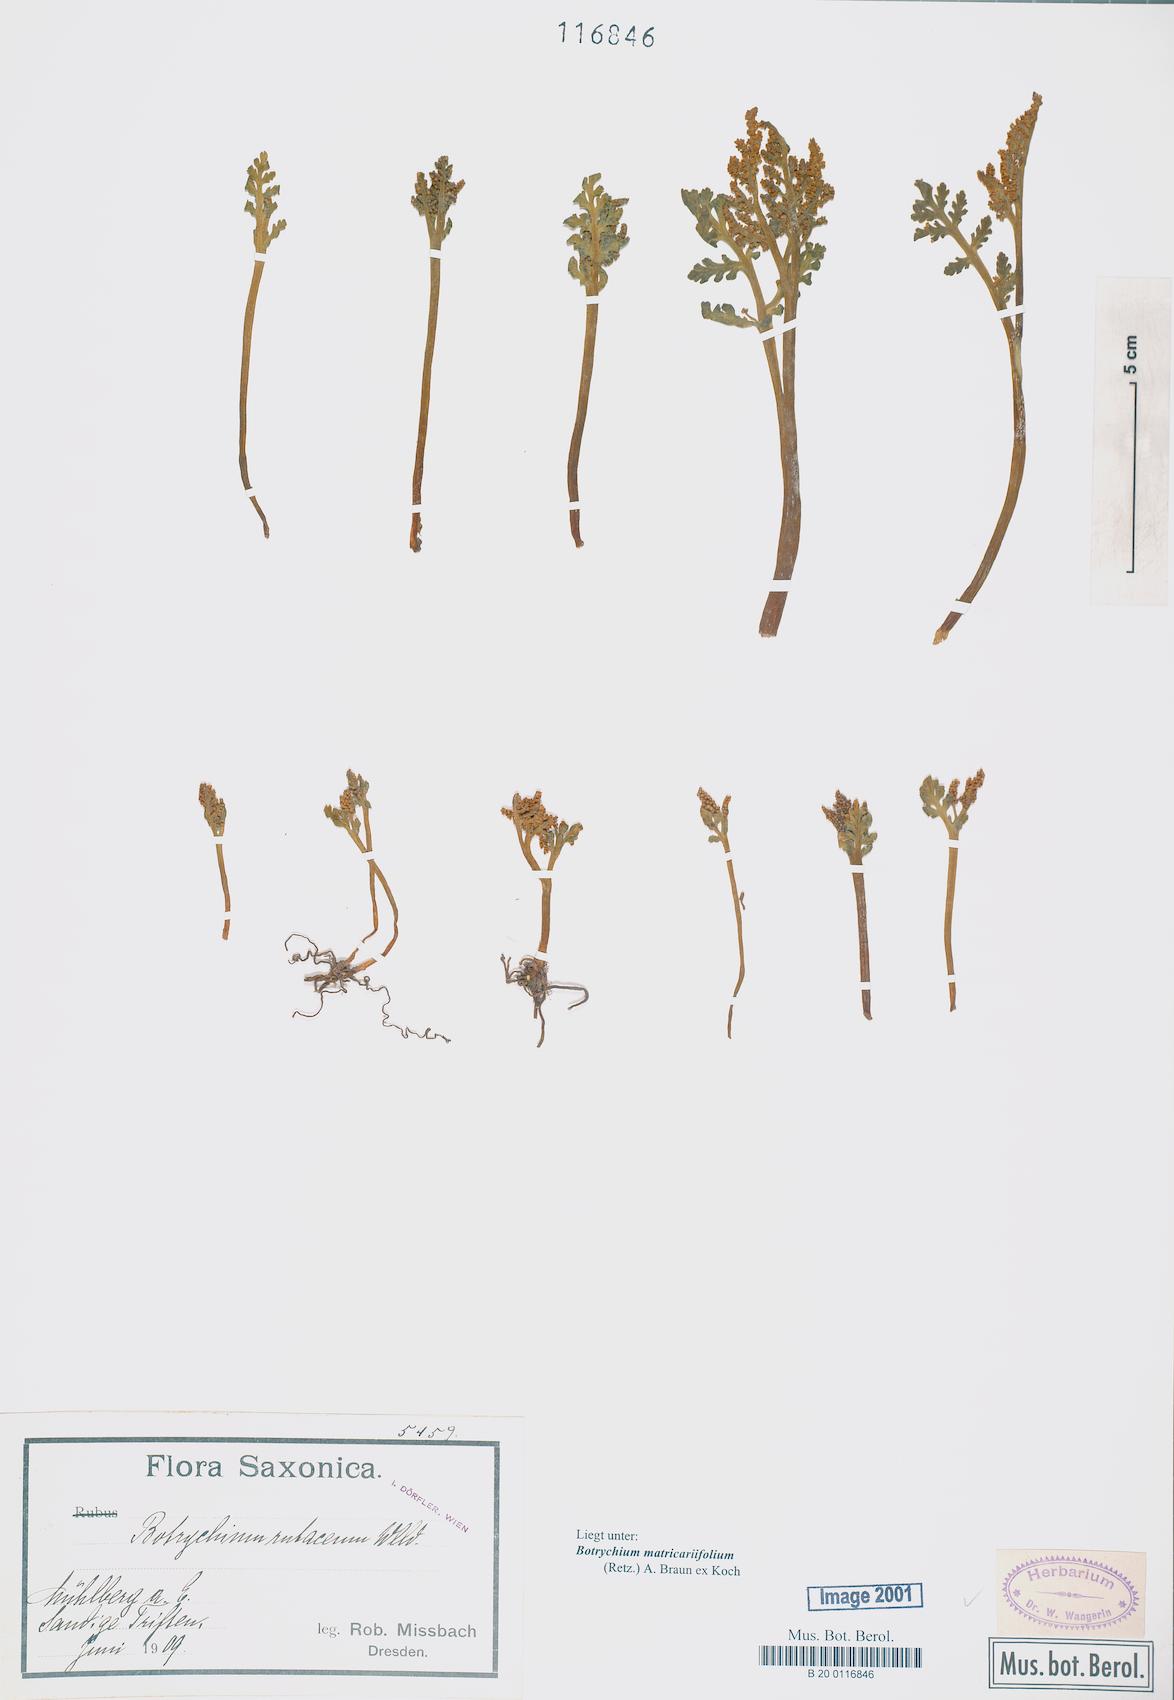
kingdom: Plantae
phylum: Tracheophyta
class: Polypodiopsida
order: Ophioglossales
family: Ophioglossaceae
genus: Botrychium
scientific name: Botrychium matricariifolium
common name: Branched moonwort
